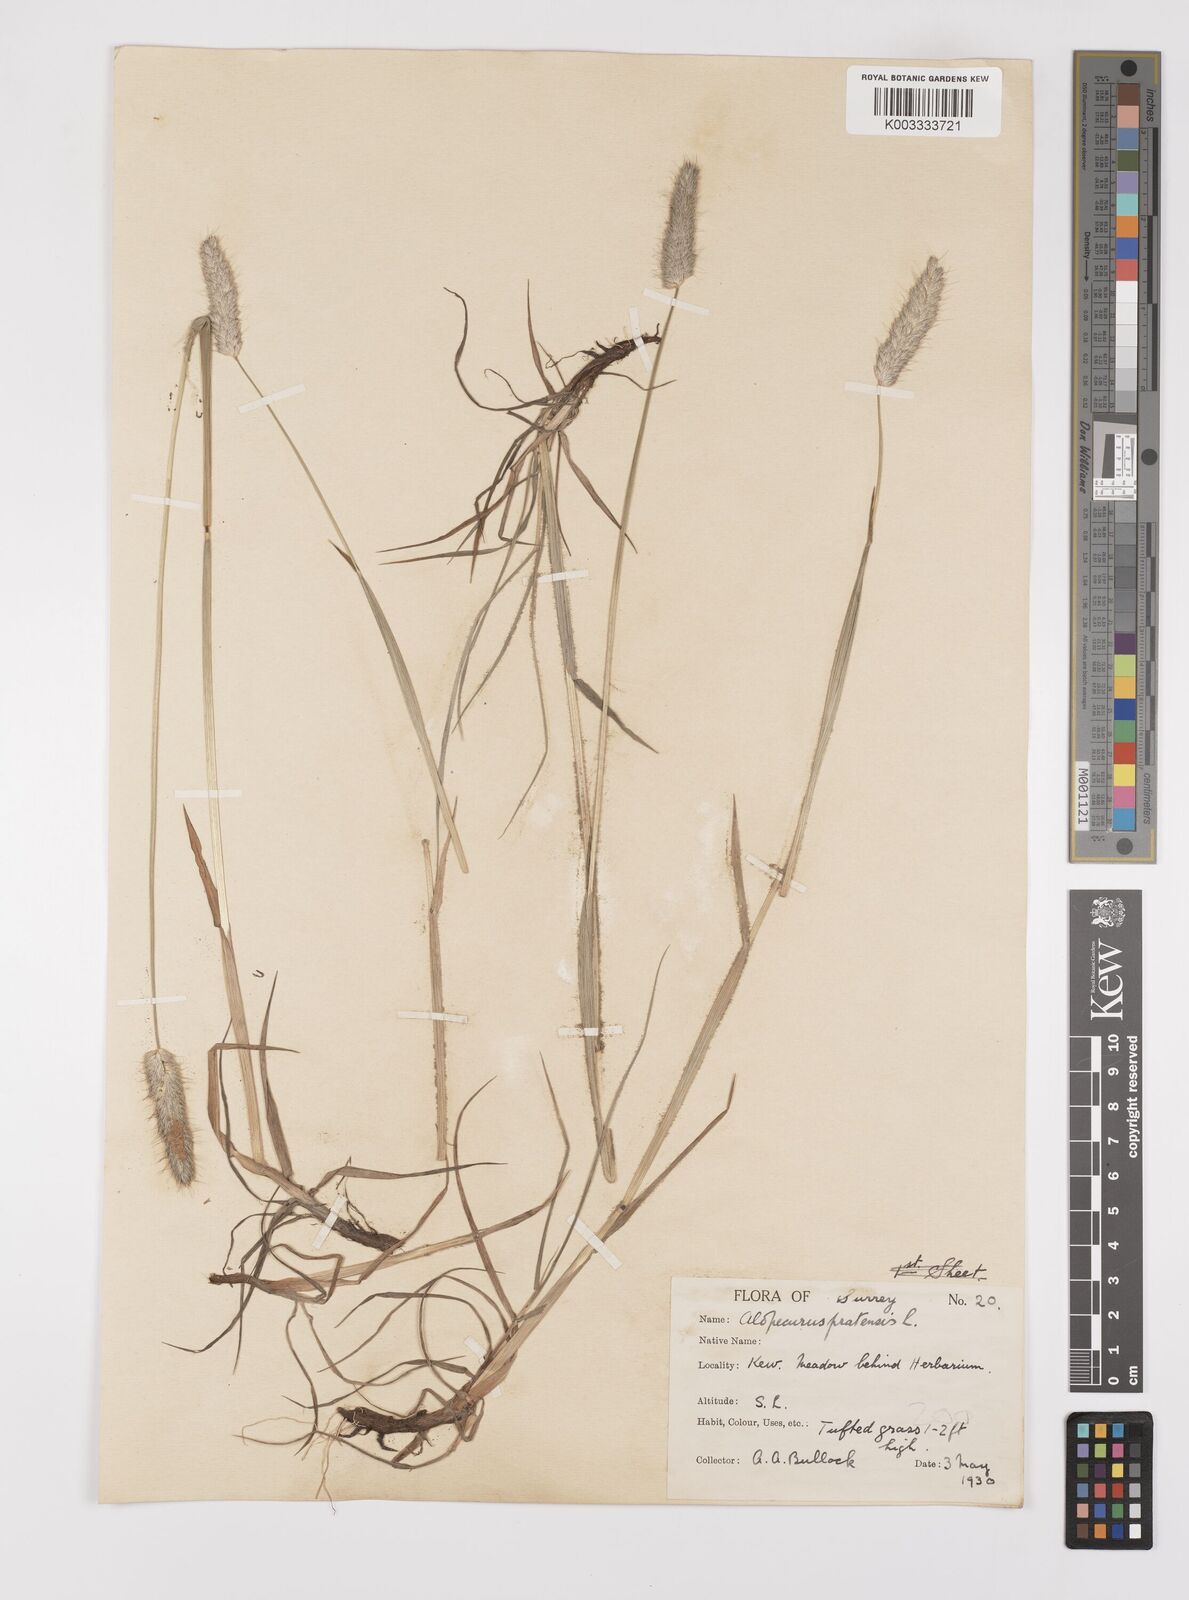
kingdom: Plantae
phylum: Tracheophyta
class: Liliopsida
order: Poales
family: Poaceae
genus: Alopecurus
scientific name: Alopecurus pratensis
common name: Meadow foxtail
